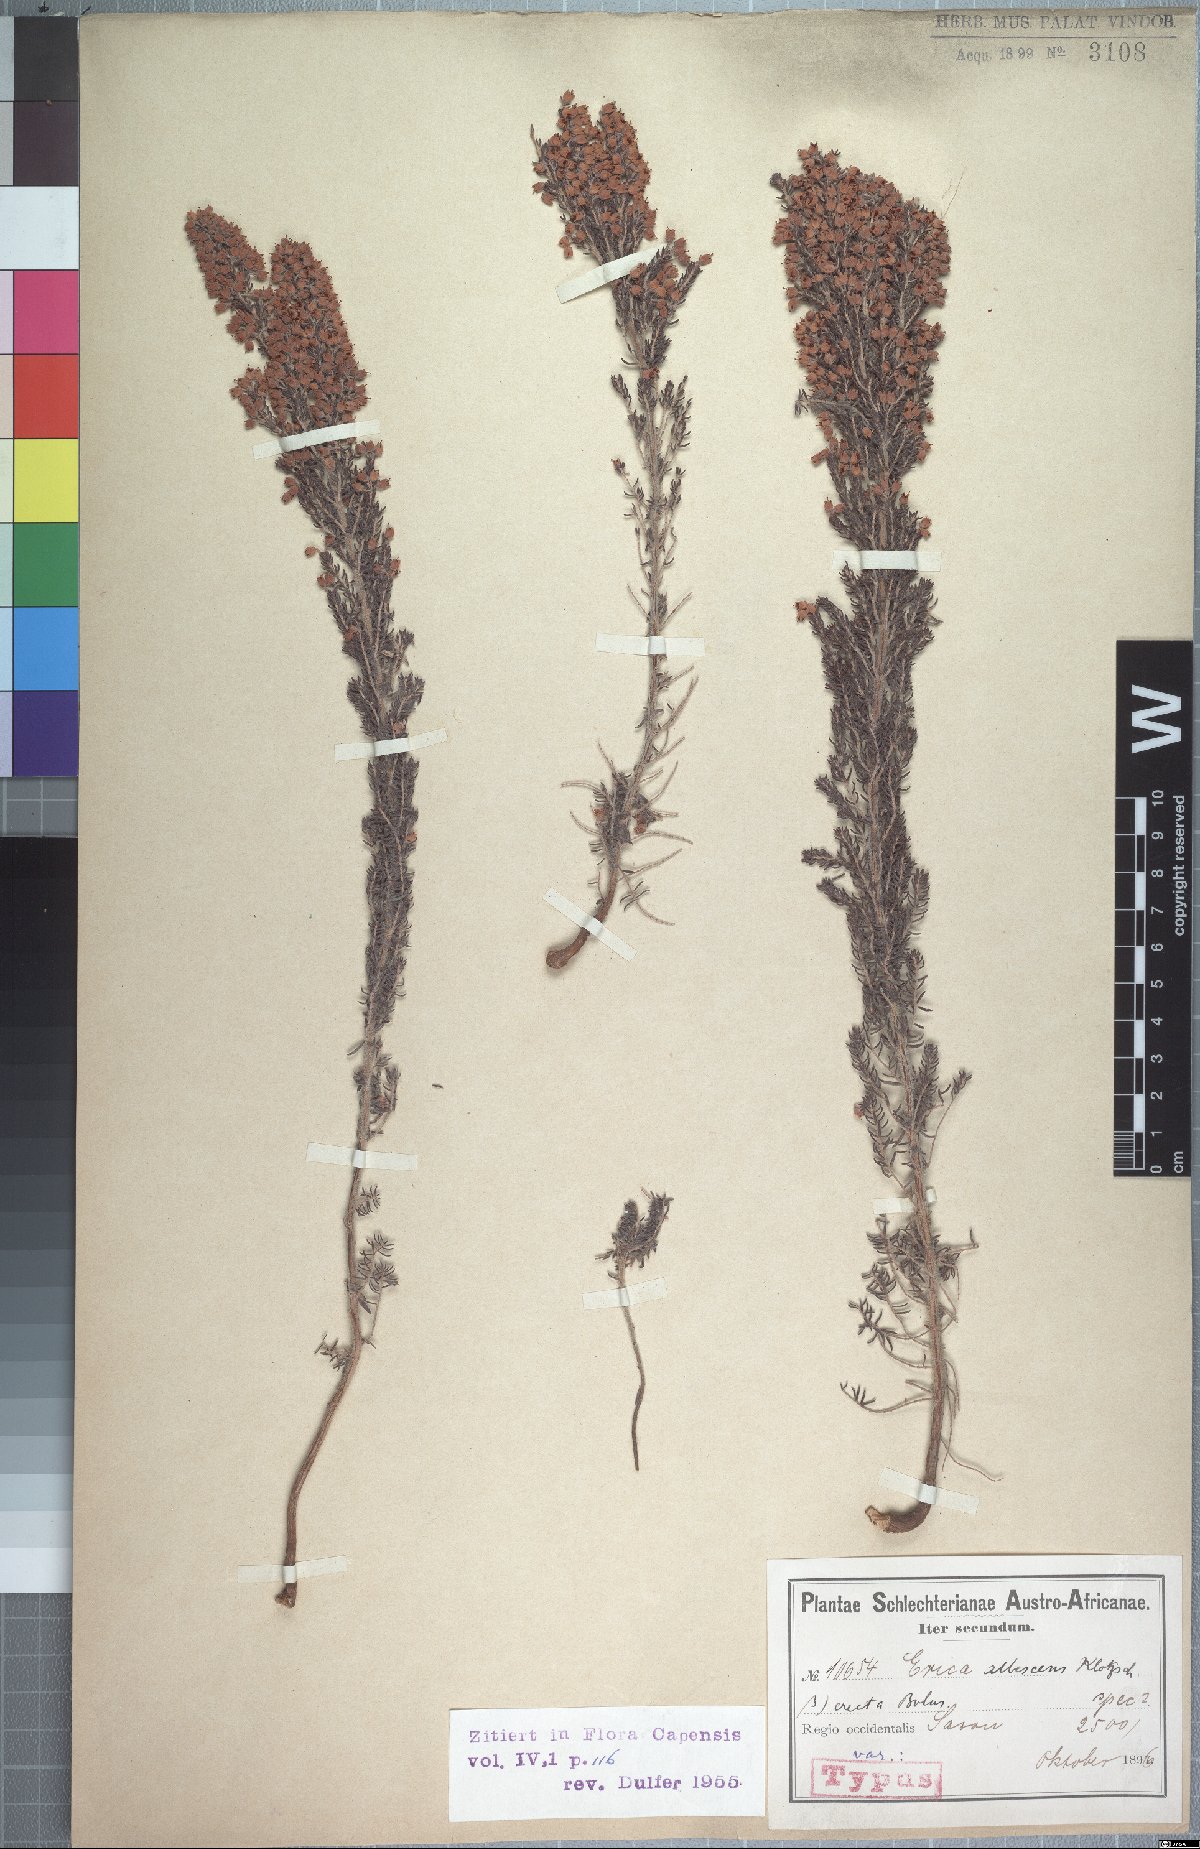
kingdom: Plantae
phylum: Tracheophyta
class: Magnoliopsida
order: Ericales
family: Ericaceae
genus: Erica
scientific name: Erica albescens
